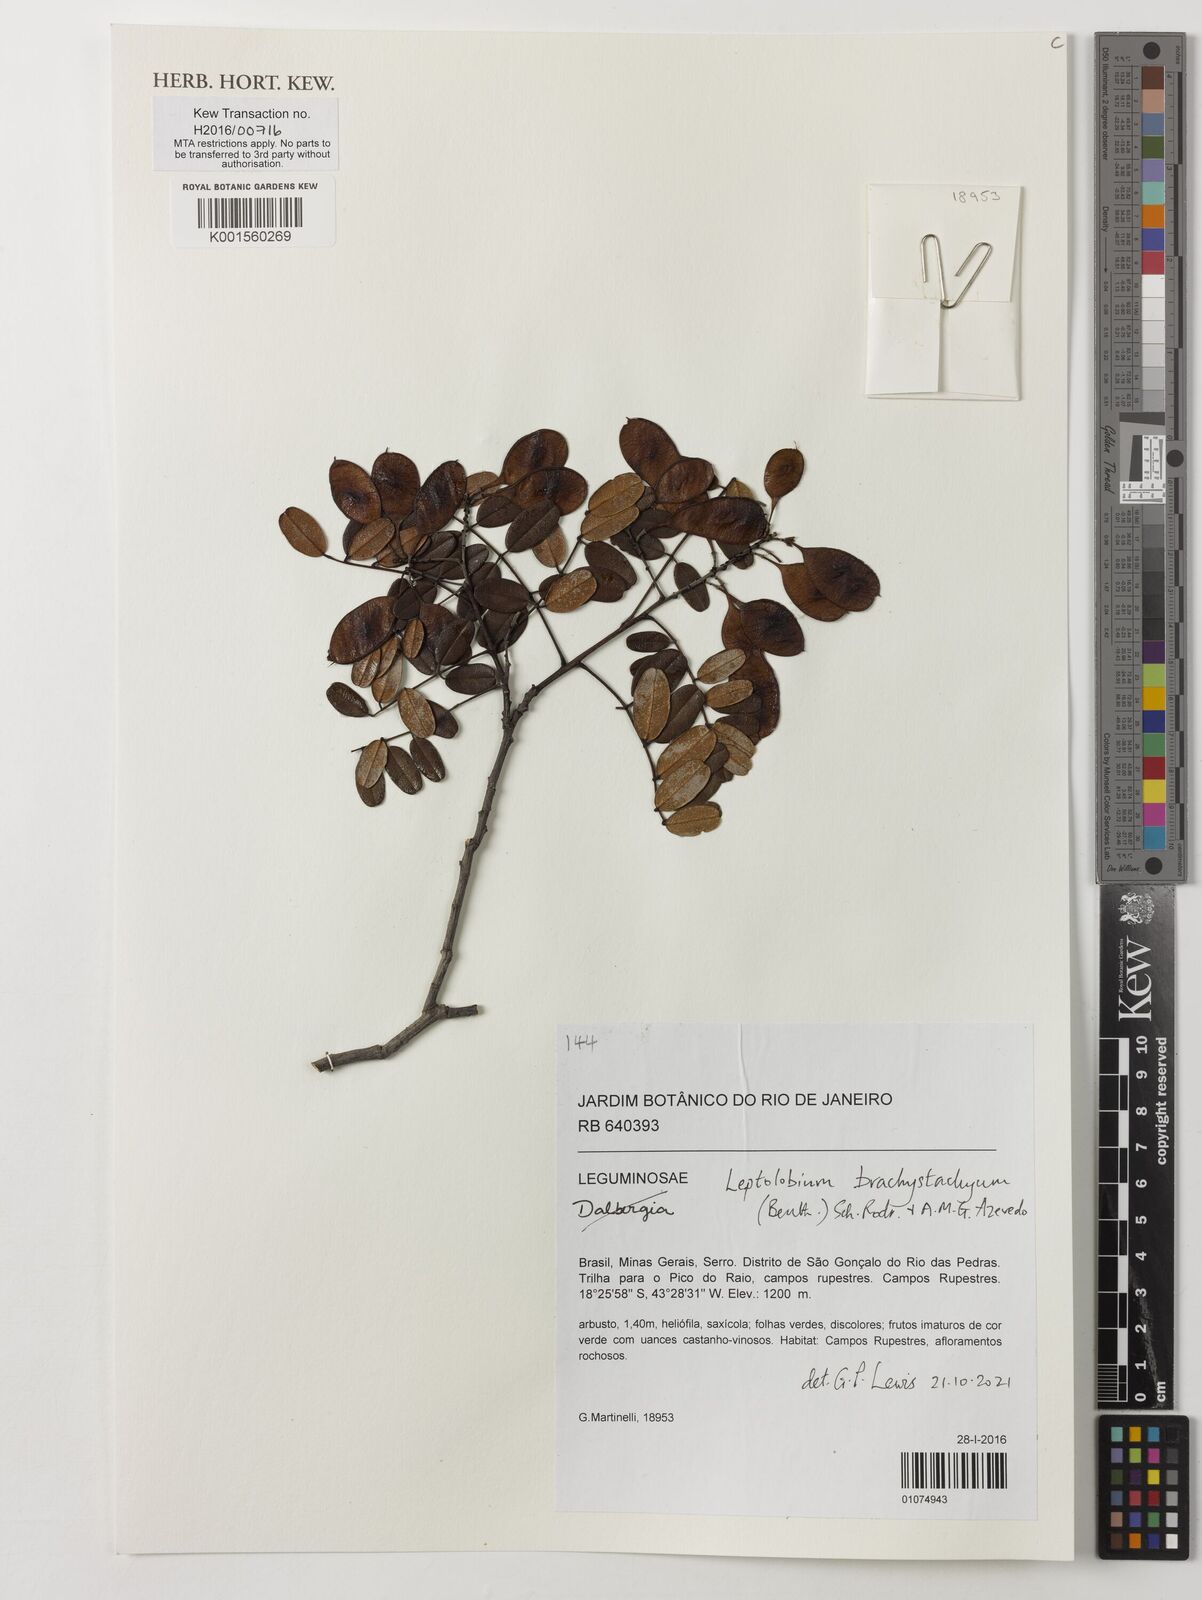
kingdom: Plantae
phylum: Tracheophyta
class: Magnoliopsida
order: Fabales
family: Fabaceae
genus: Leptolobium
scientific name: Leptolobium brachystachyum
